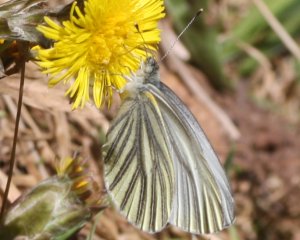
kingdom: Animalia
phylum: Arthropoda
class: Insecta
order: Lepidoptera
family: Pieridae
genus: Pieris
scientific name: Pieris oleracea
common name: Mustard White
